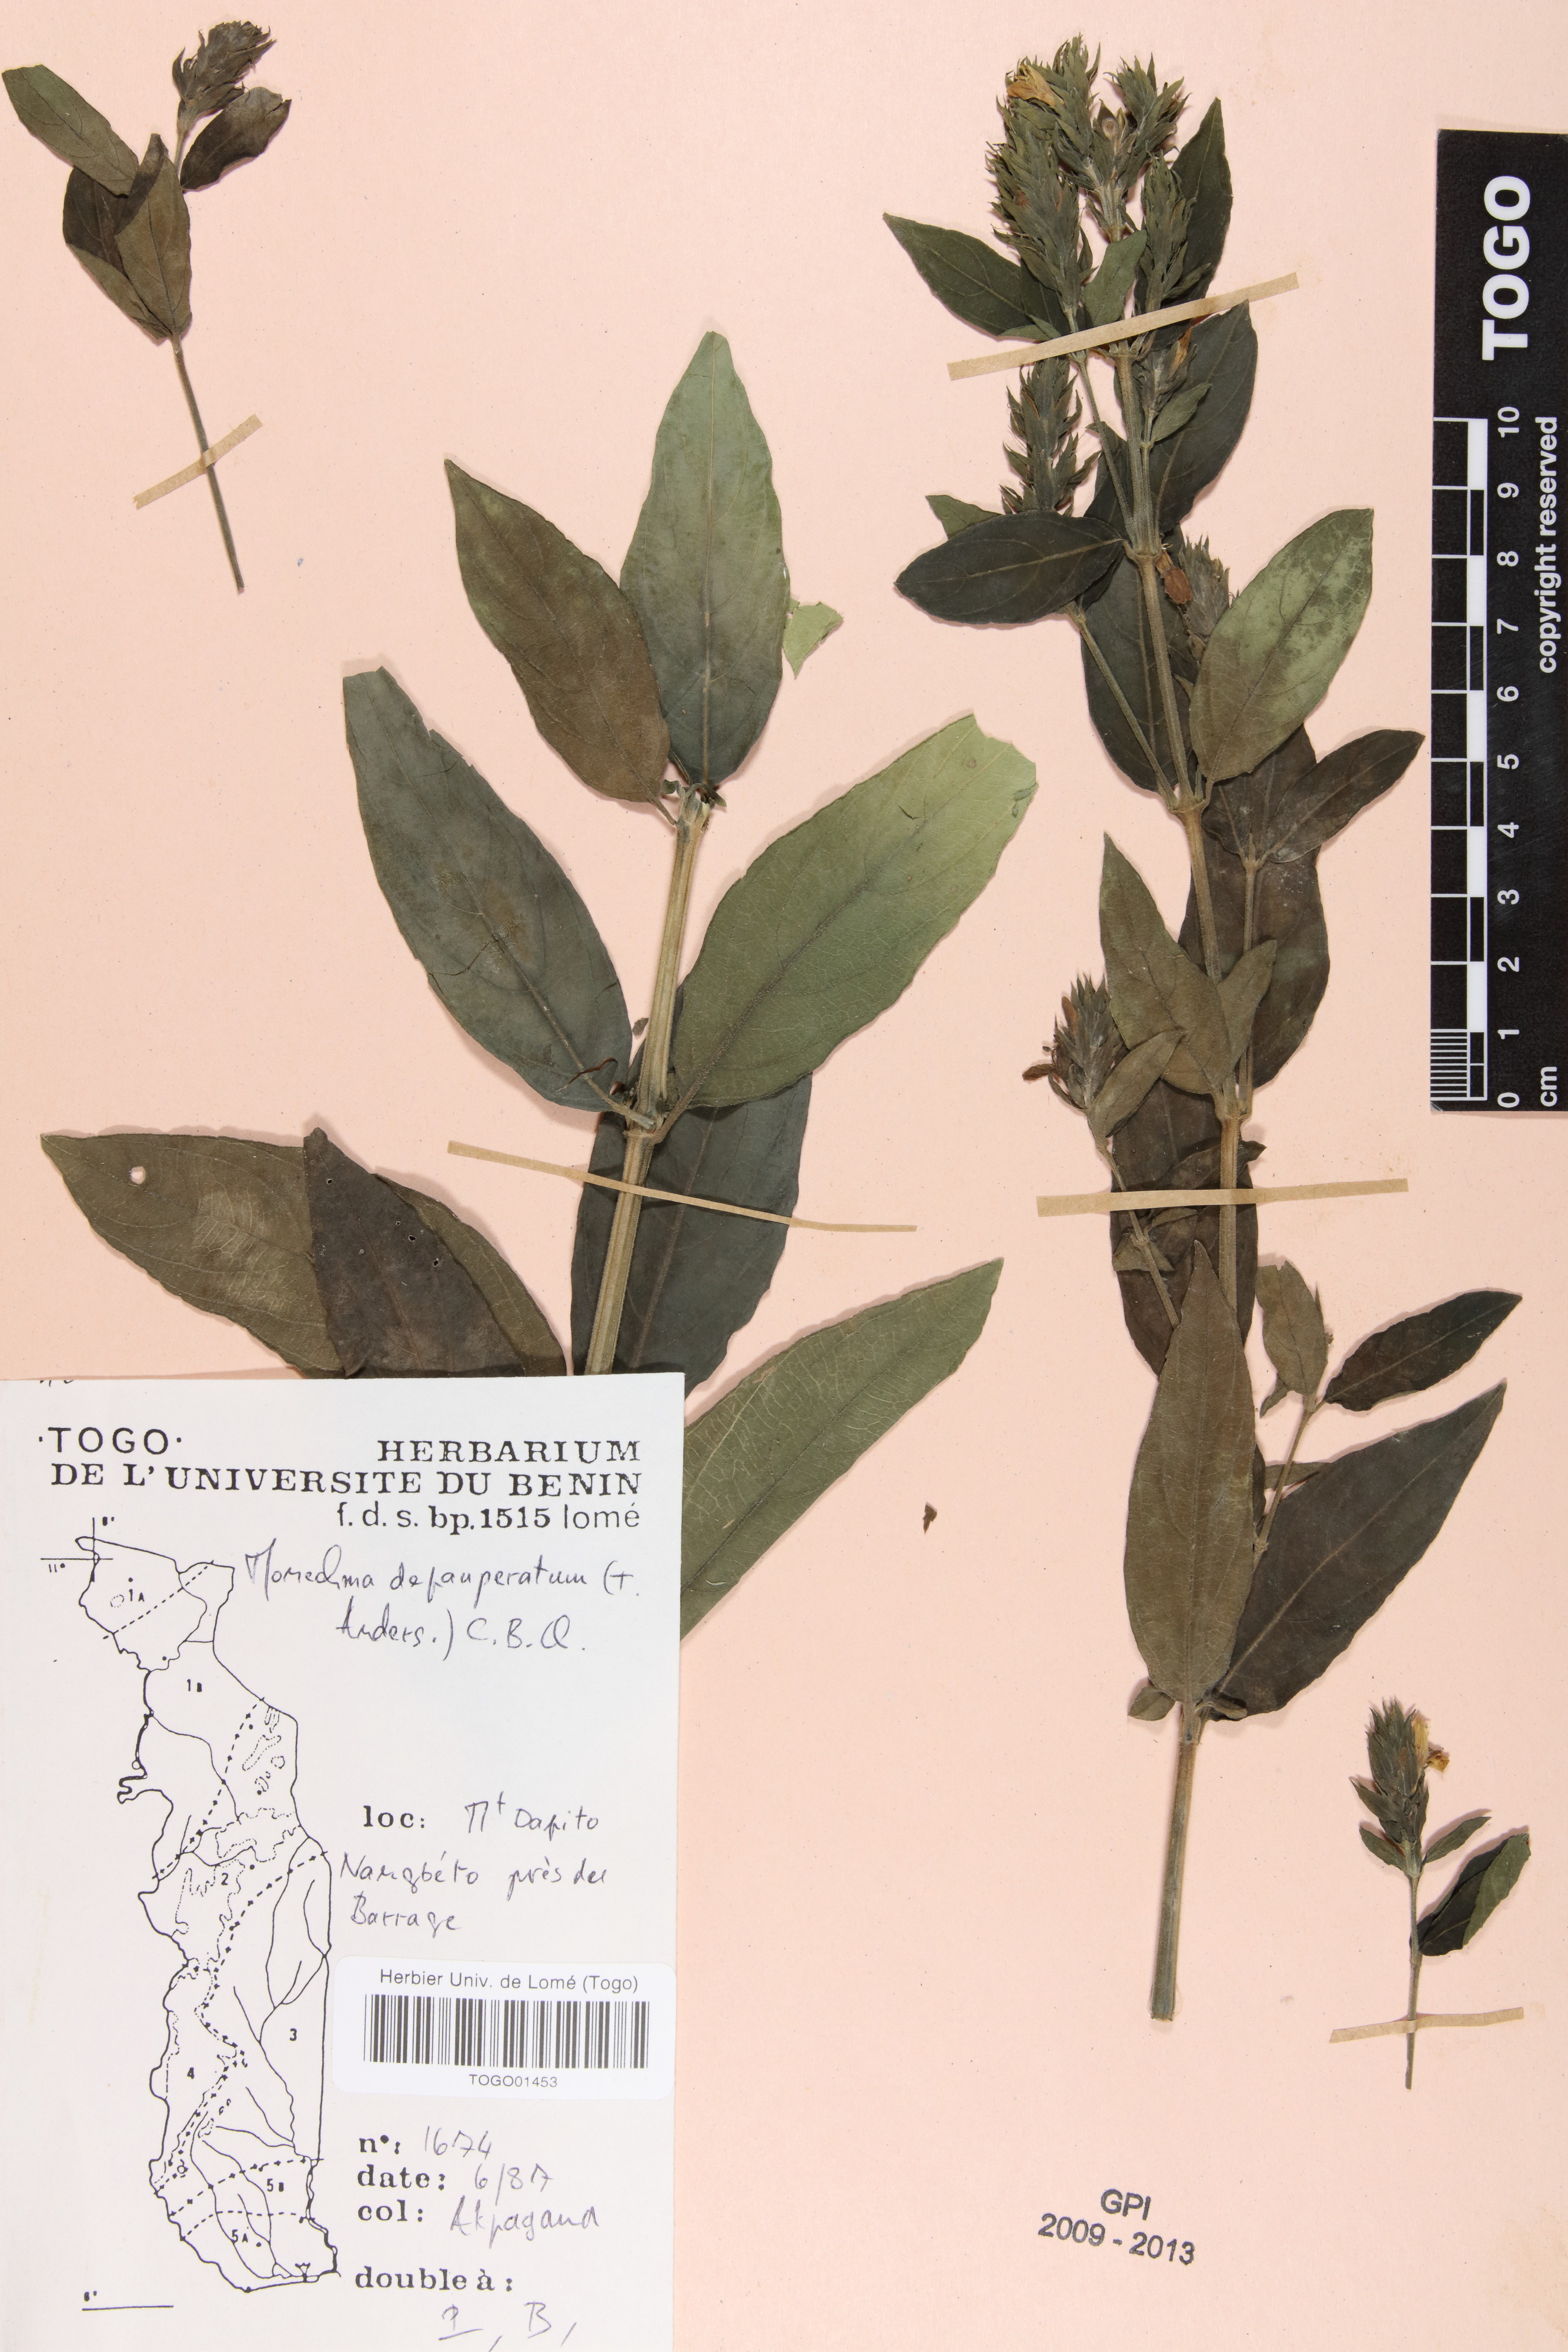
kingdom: Plantae
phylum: Tracheophyta
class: Magnoliopsida
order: Lamiales
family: Acanthaceae
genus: Monechma
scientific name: Monechma depauperatum
